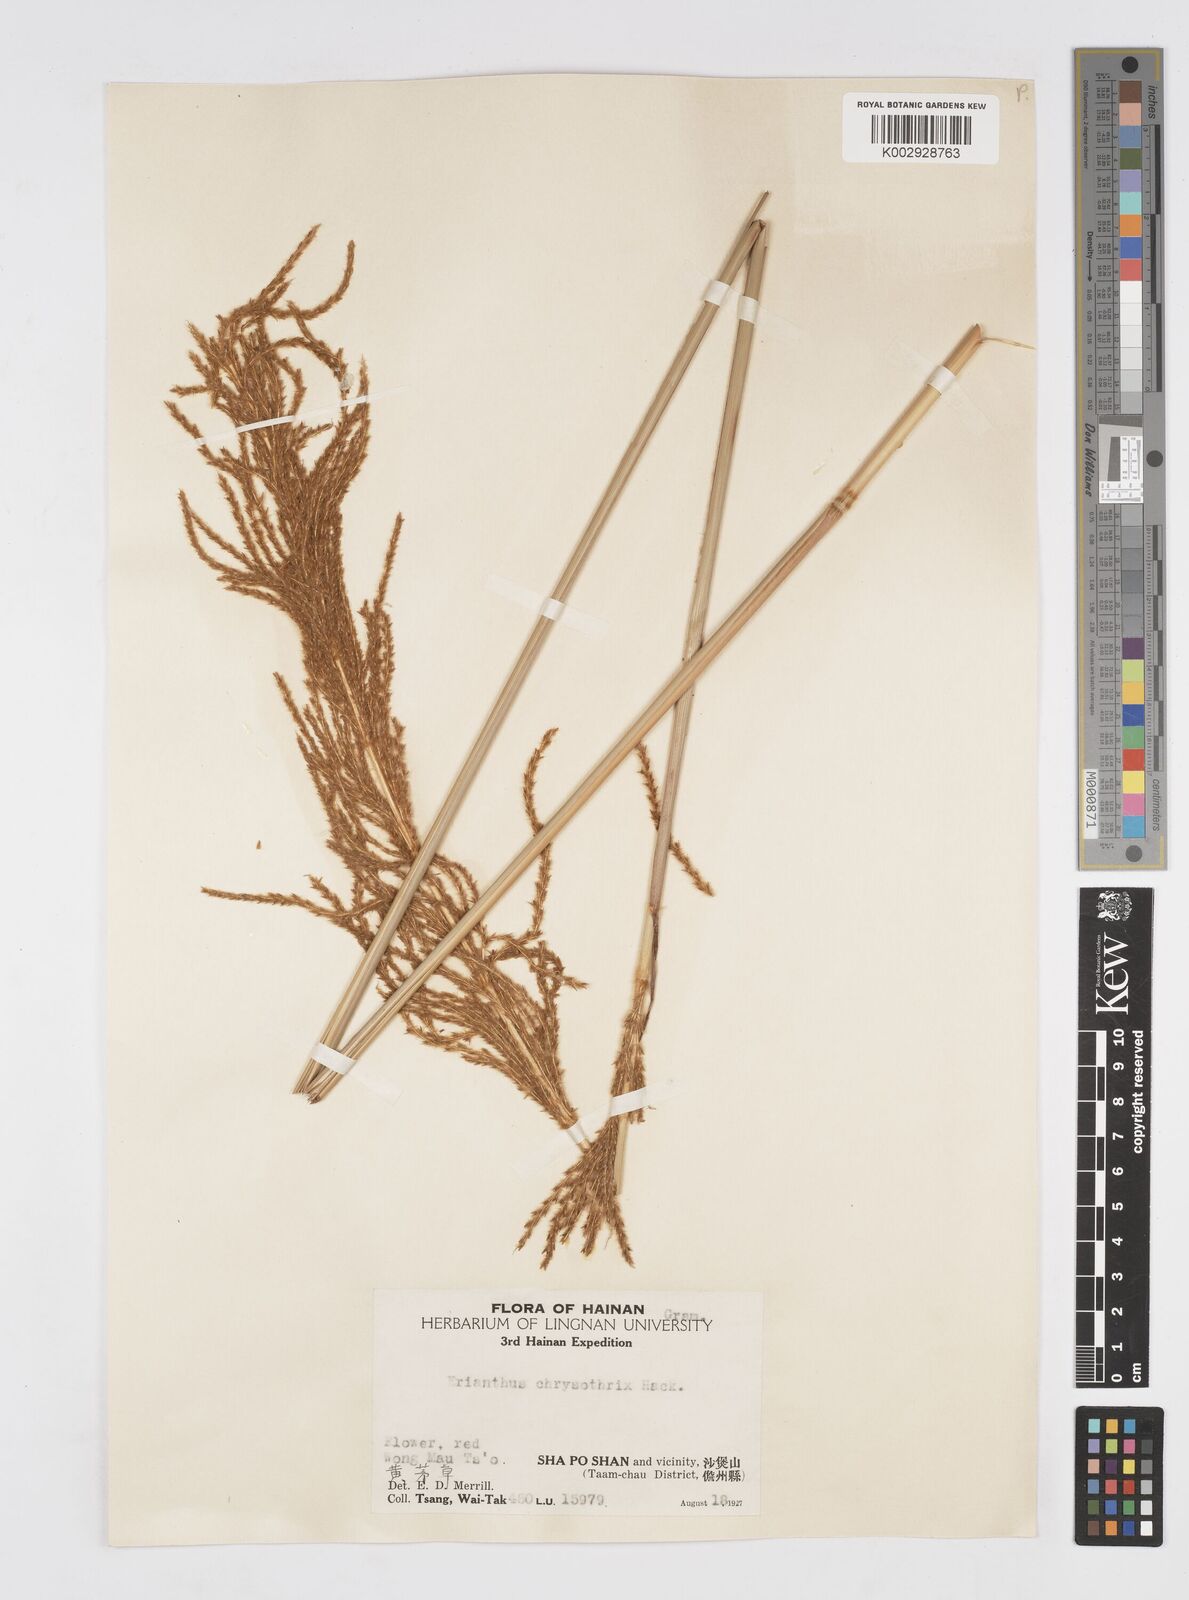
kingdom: Plantae
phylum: Tracheophyta
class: Liliopsida
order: Poales
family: Poaceae
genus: Narenga
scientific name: Narenga fallax
